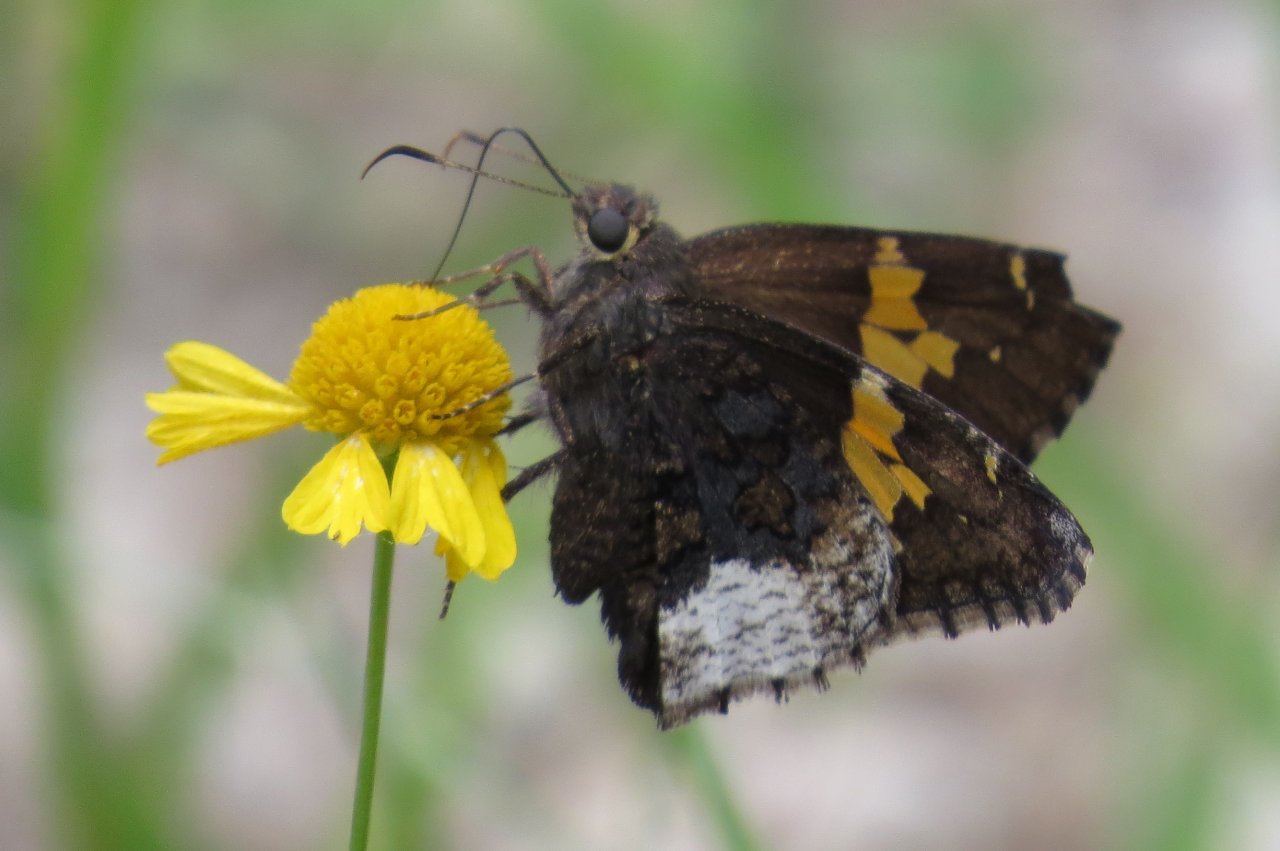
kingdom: Animalia
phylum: Arthropoda
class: Insecta
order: Lepidoptera
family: Hesperiidae
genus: Achalarus
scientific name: Achalarus lyciades
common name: Hoary Edge
